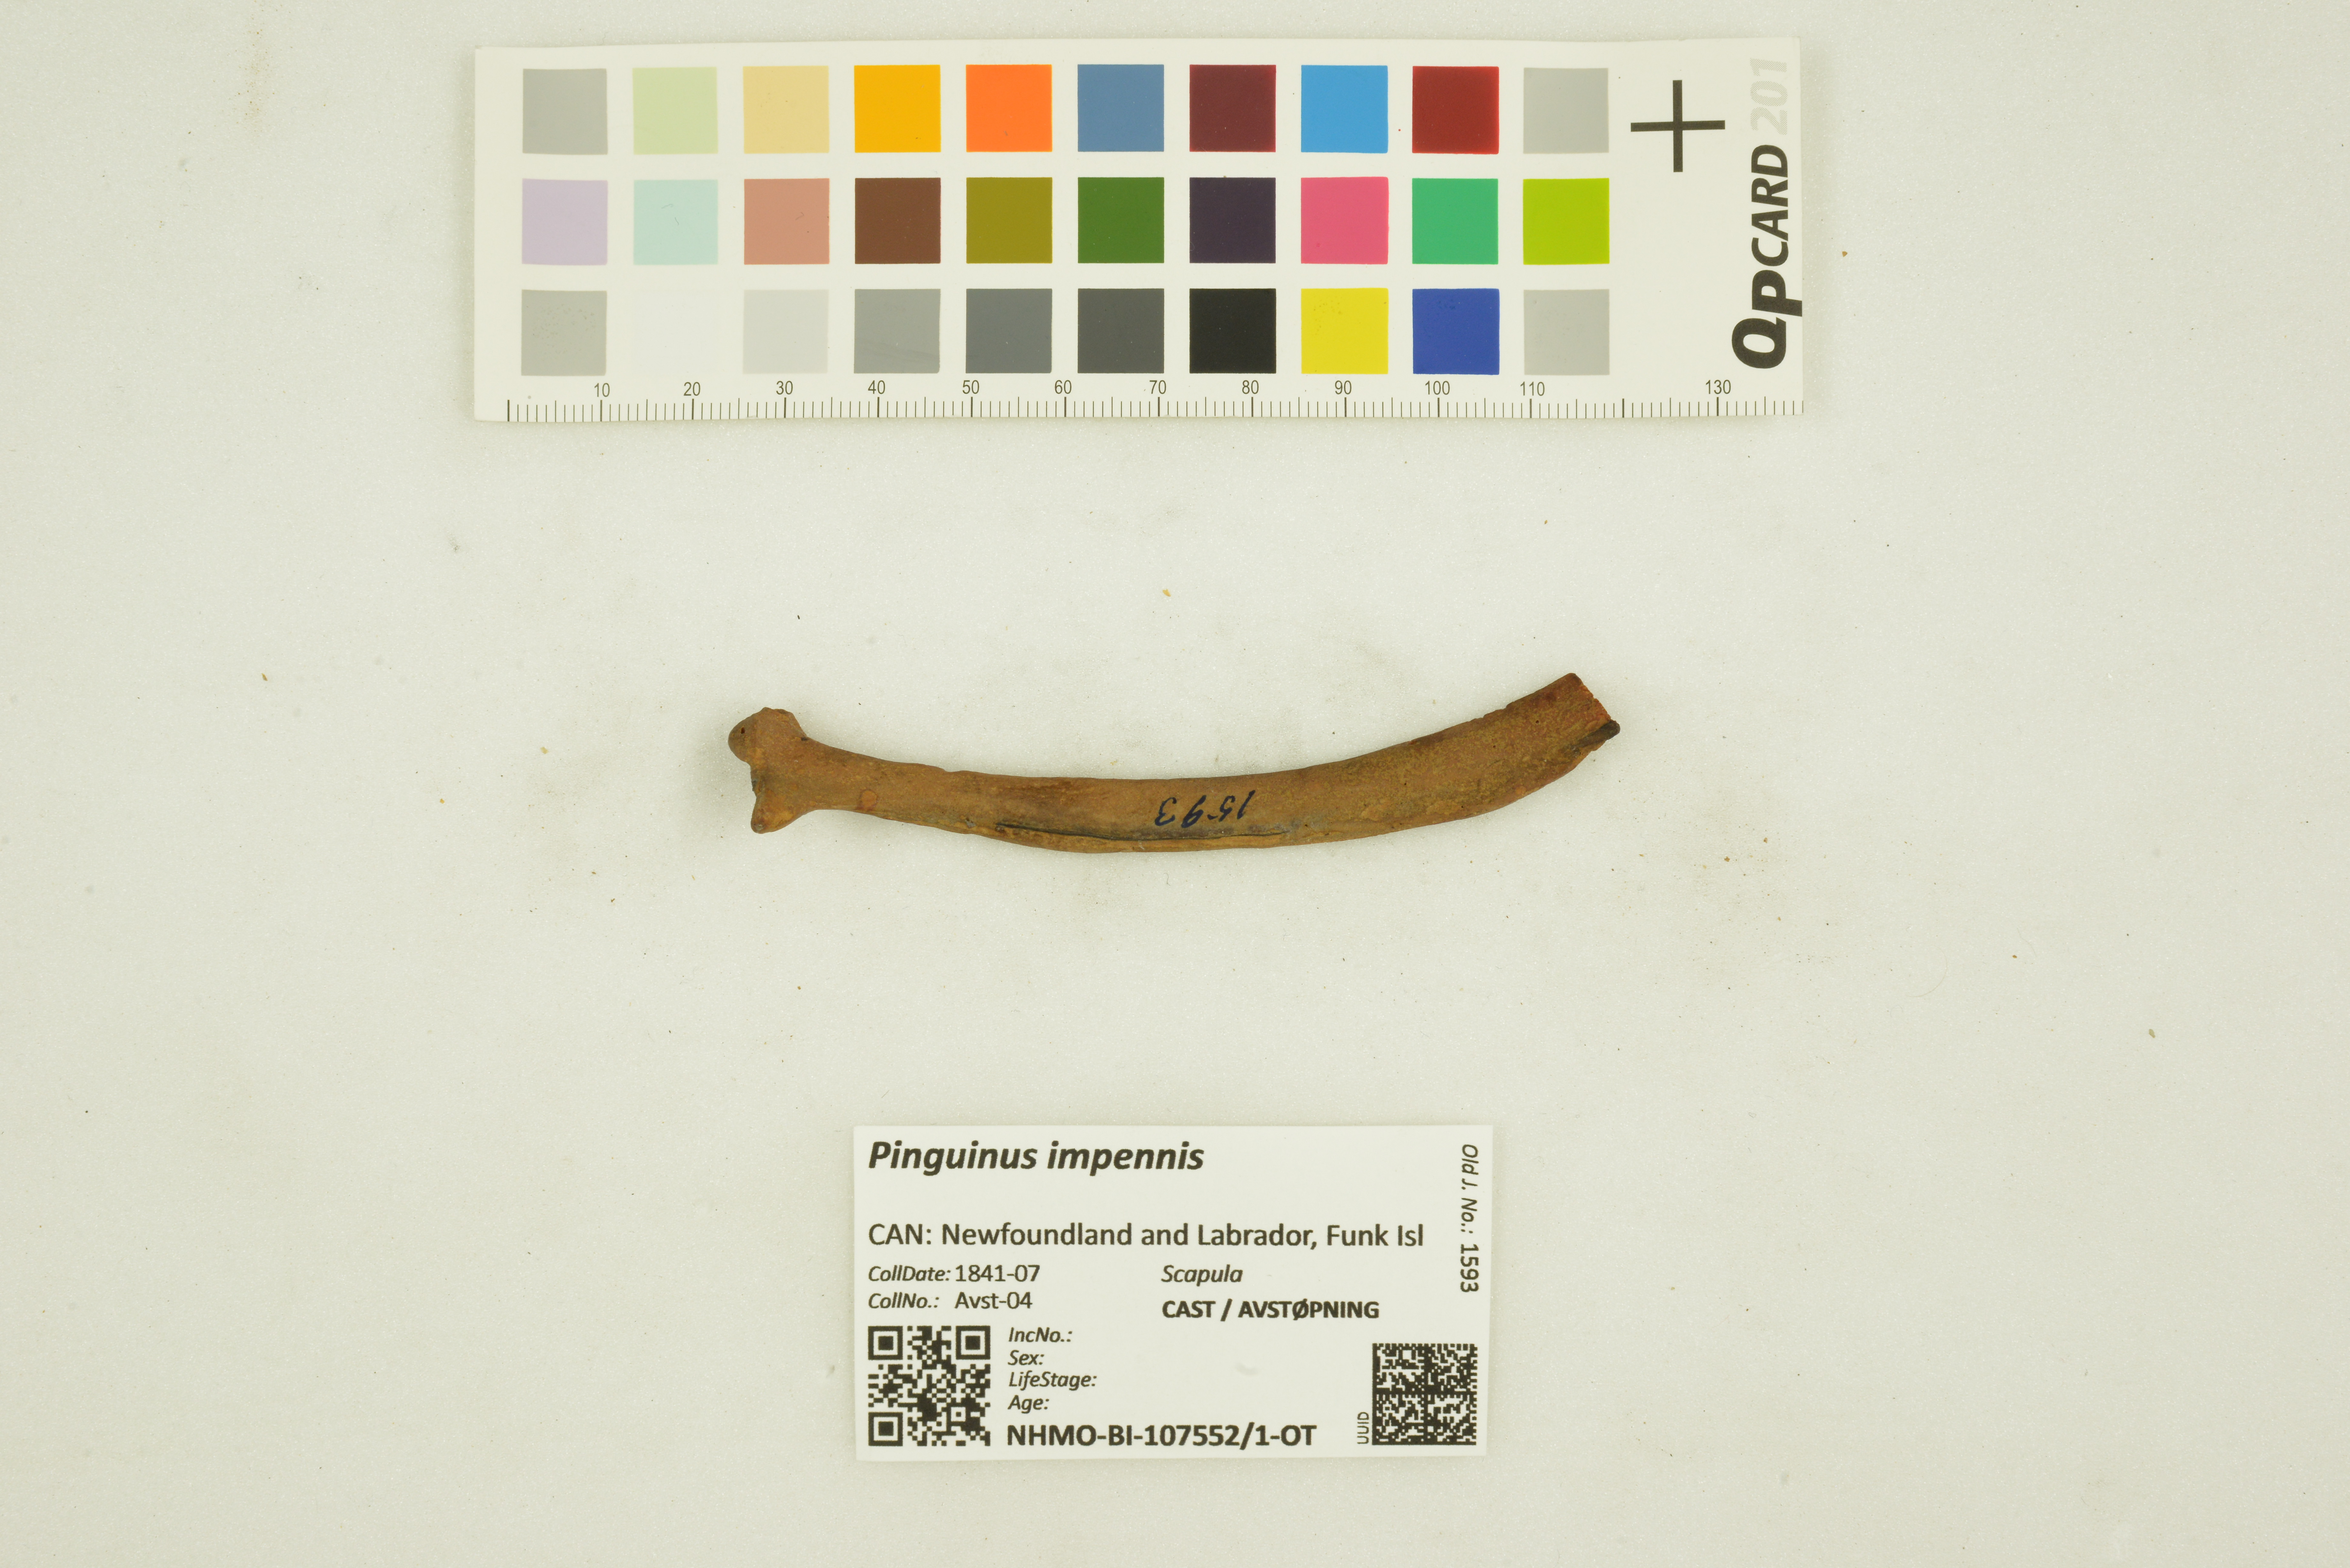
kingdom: Animalia
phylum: Chordata
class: Aves
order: Charadriiformes
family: Alcidae
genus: Pinguinus
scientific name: Pinguinus impennis
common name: Great auk
